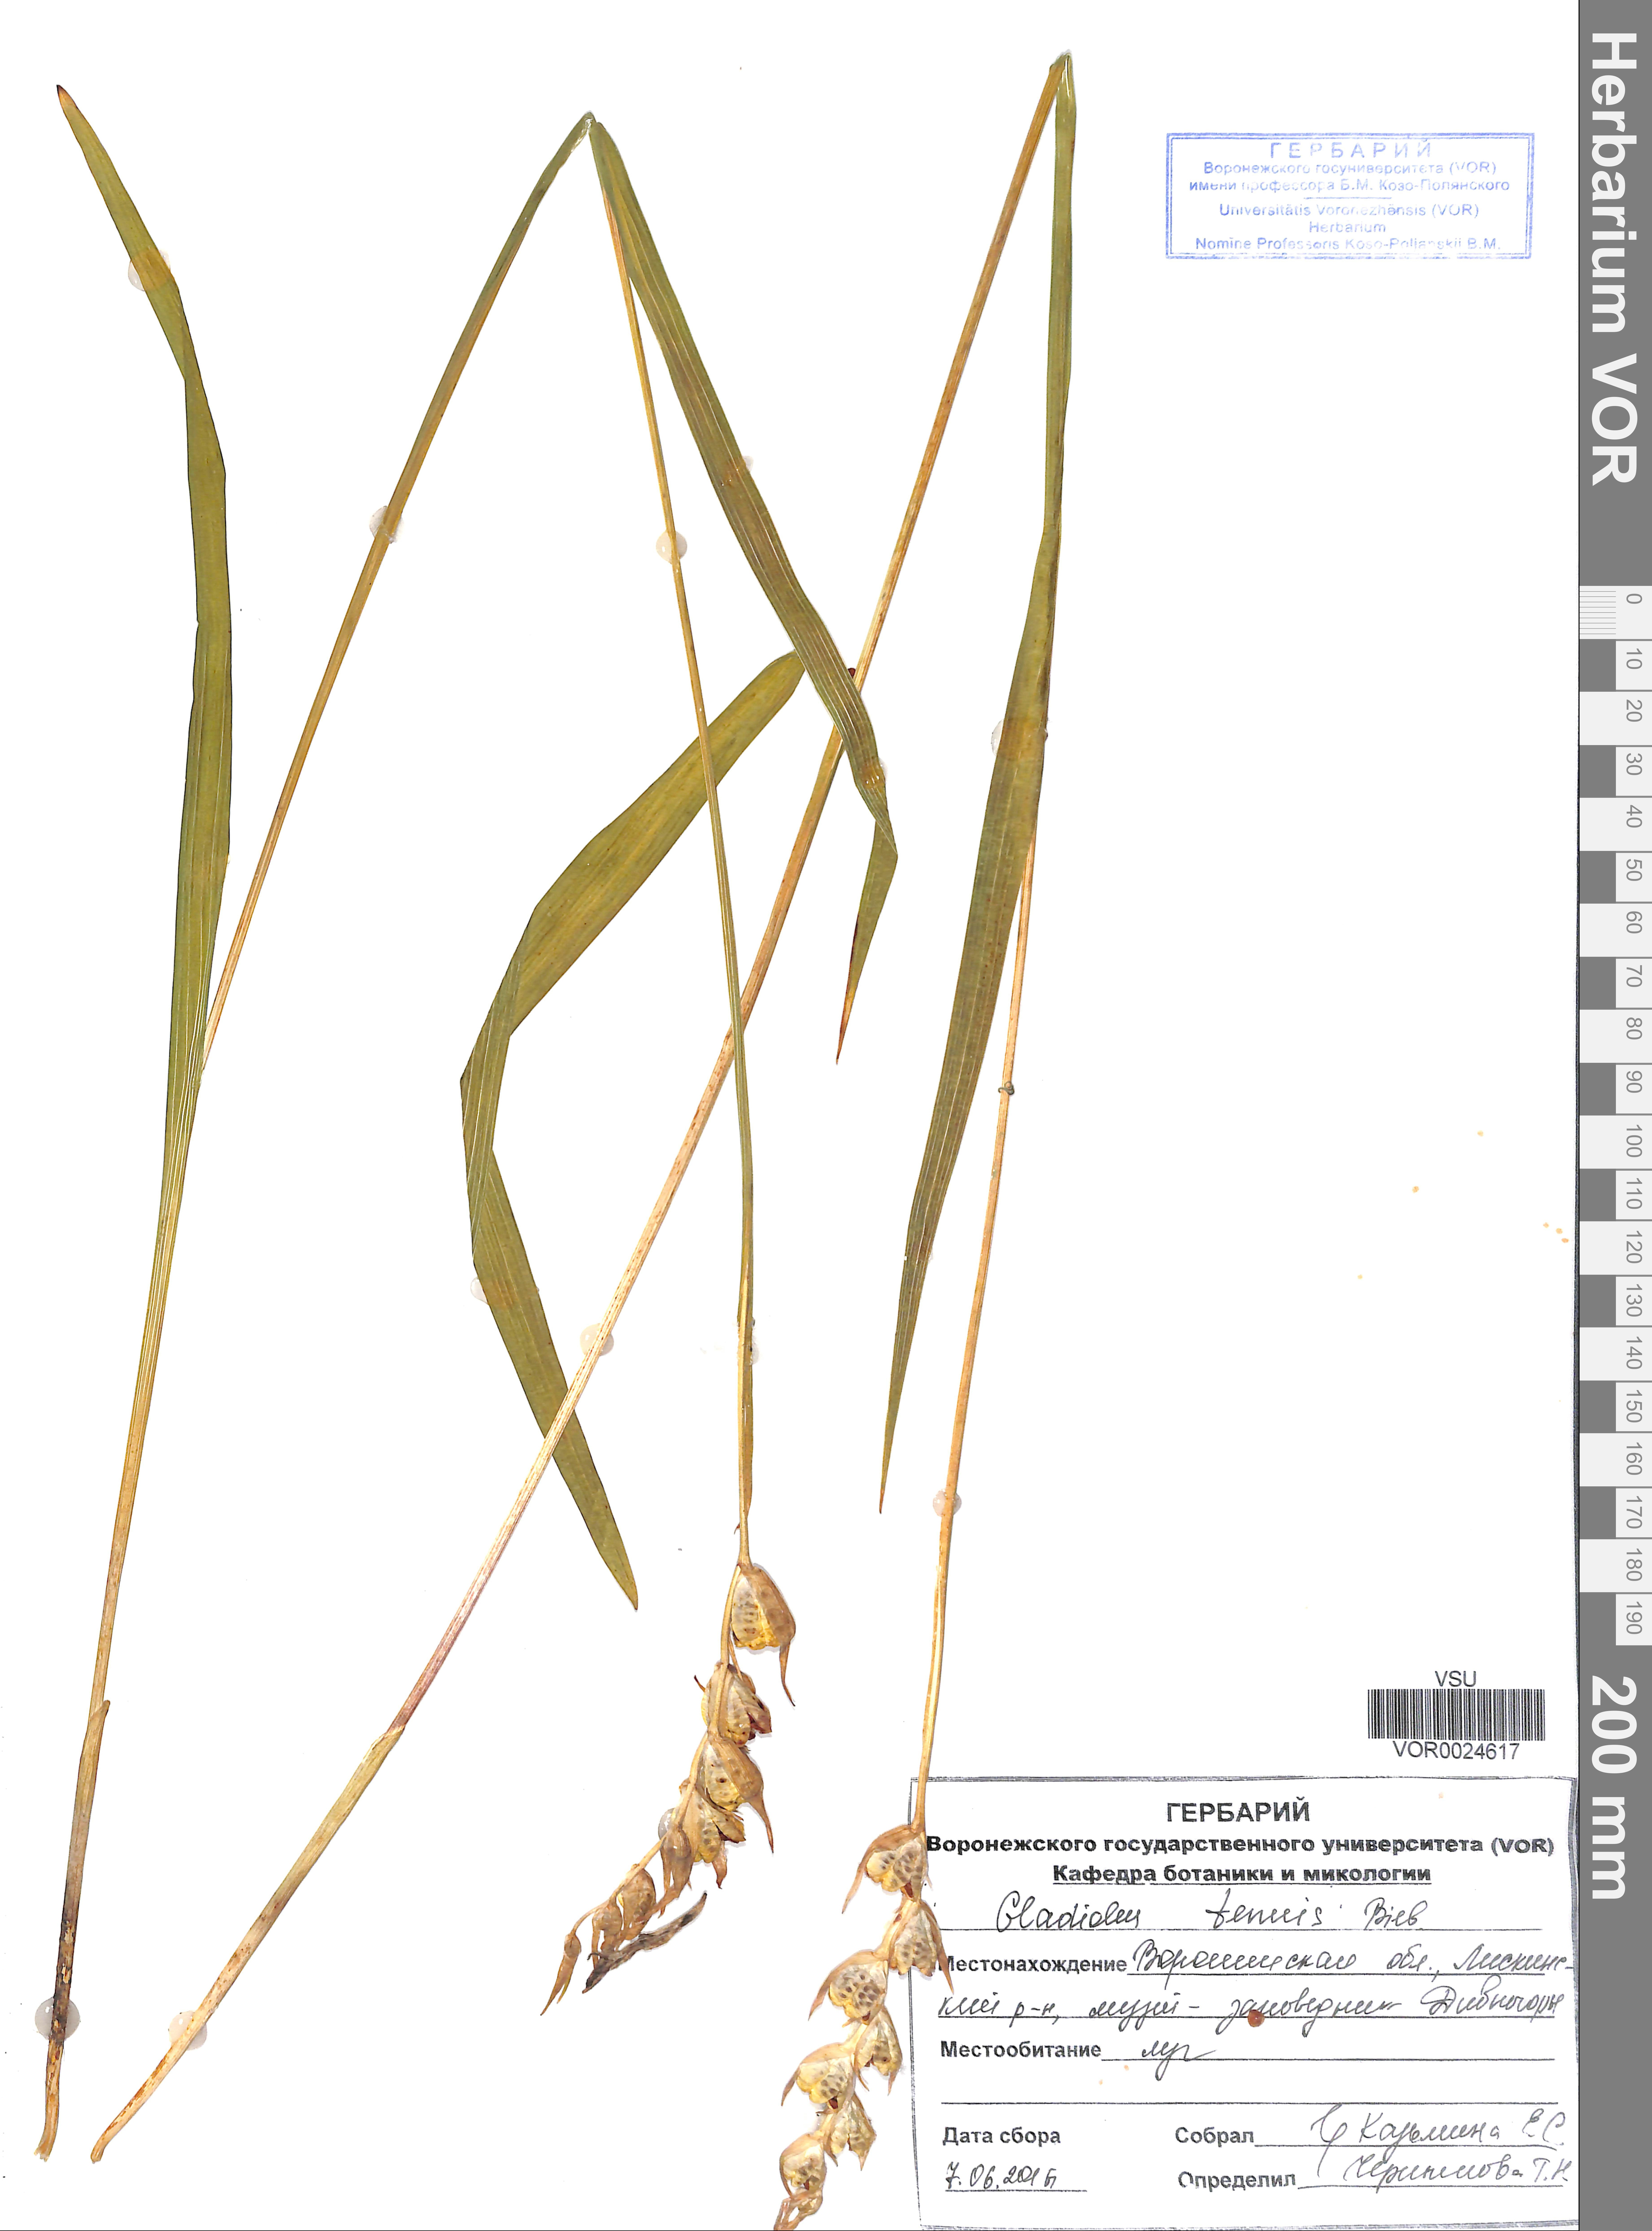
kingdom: Plantae
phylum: Tracheophyta
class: Liliopsida
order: Asparagales
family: Iridaceae
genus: Gladiolus
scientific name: Gladiolus tenuis
